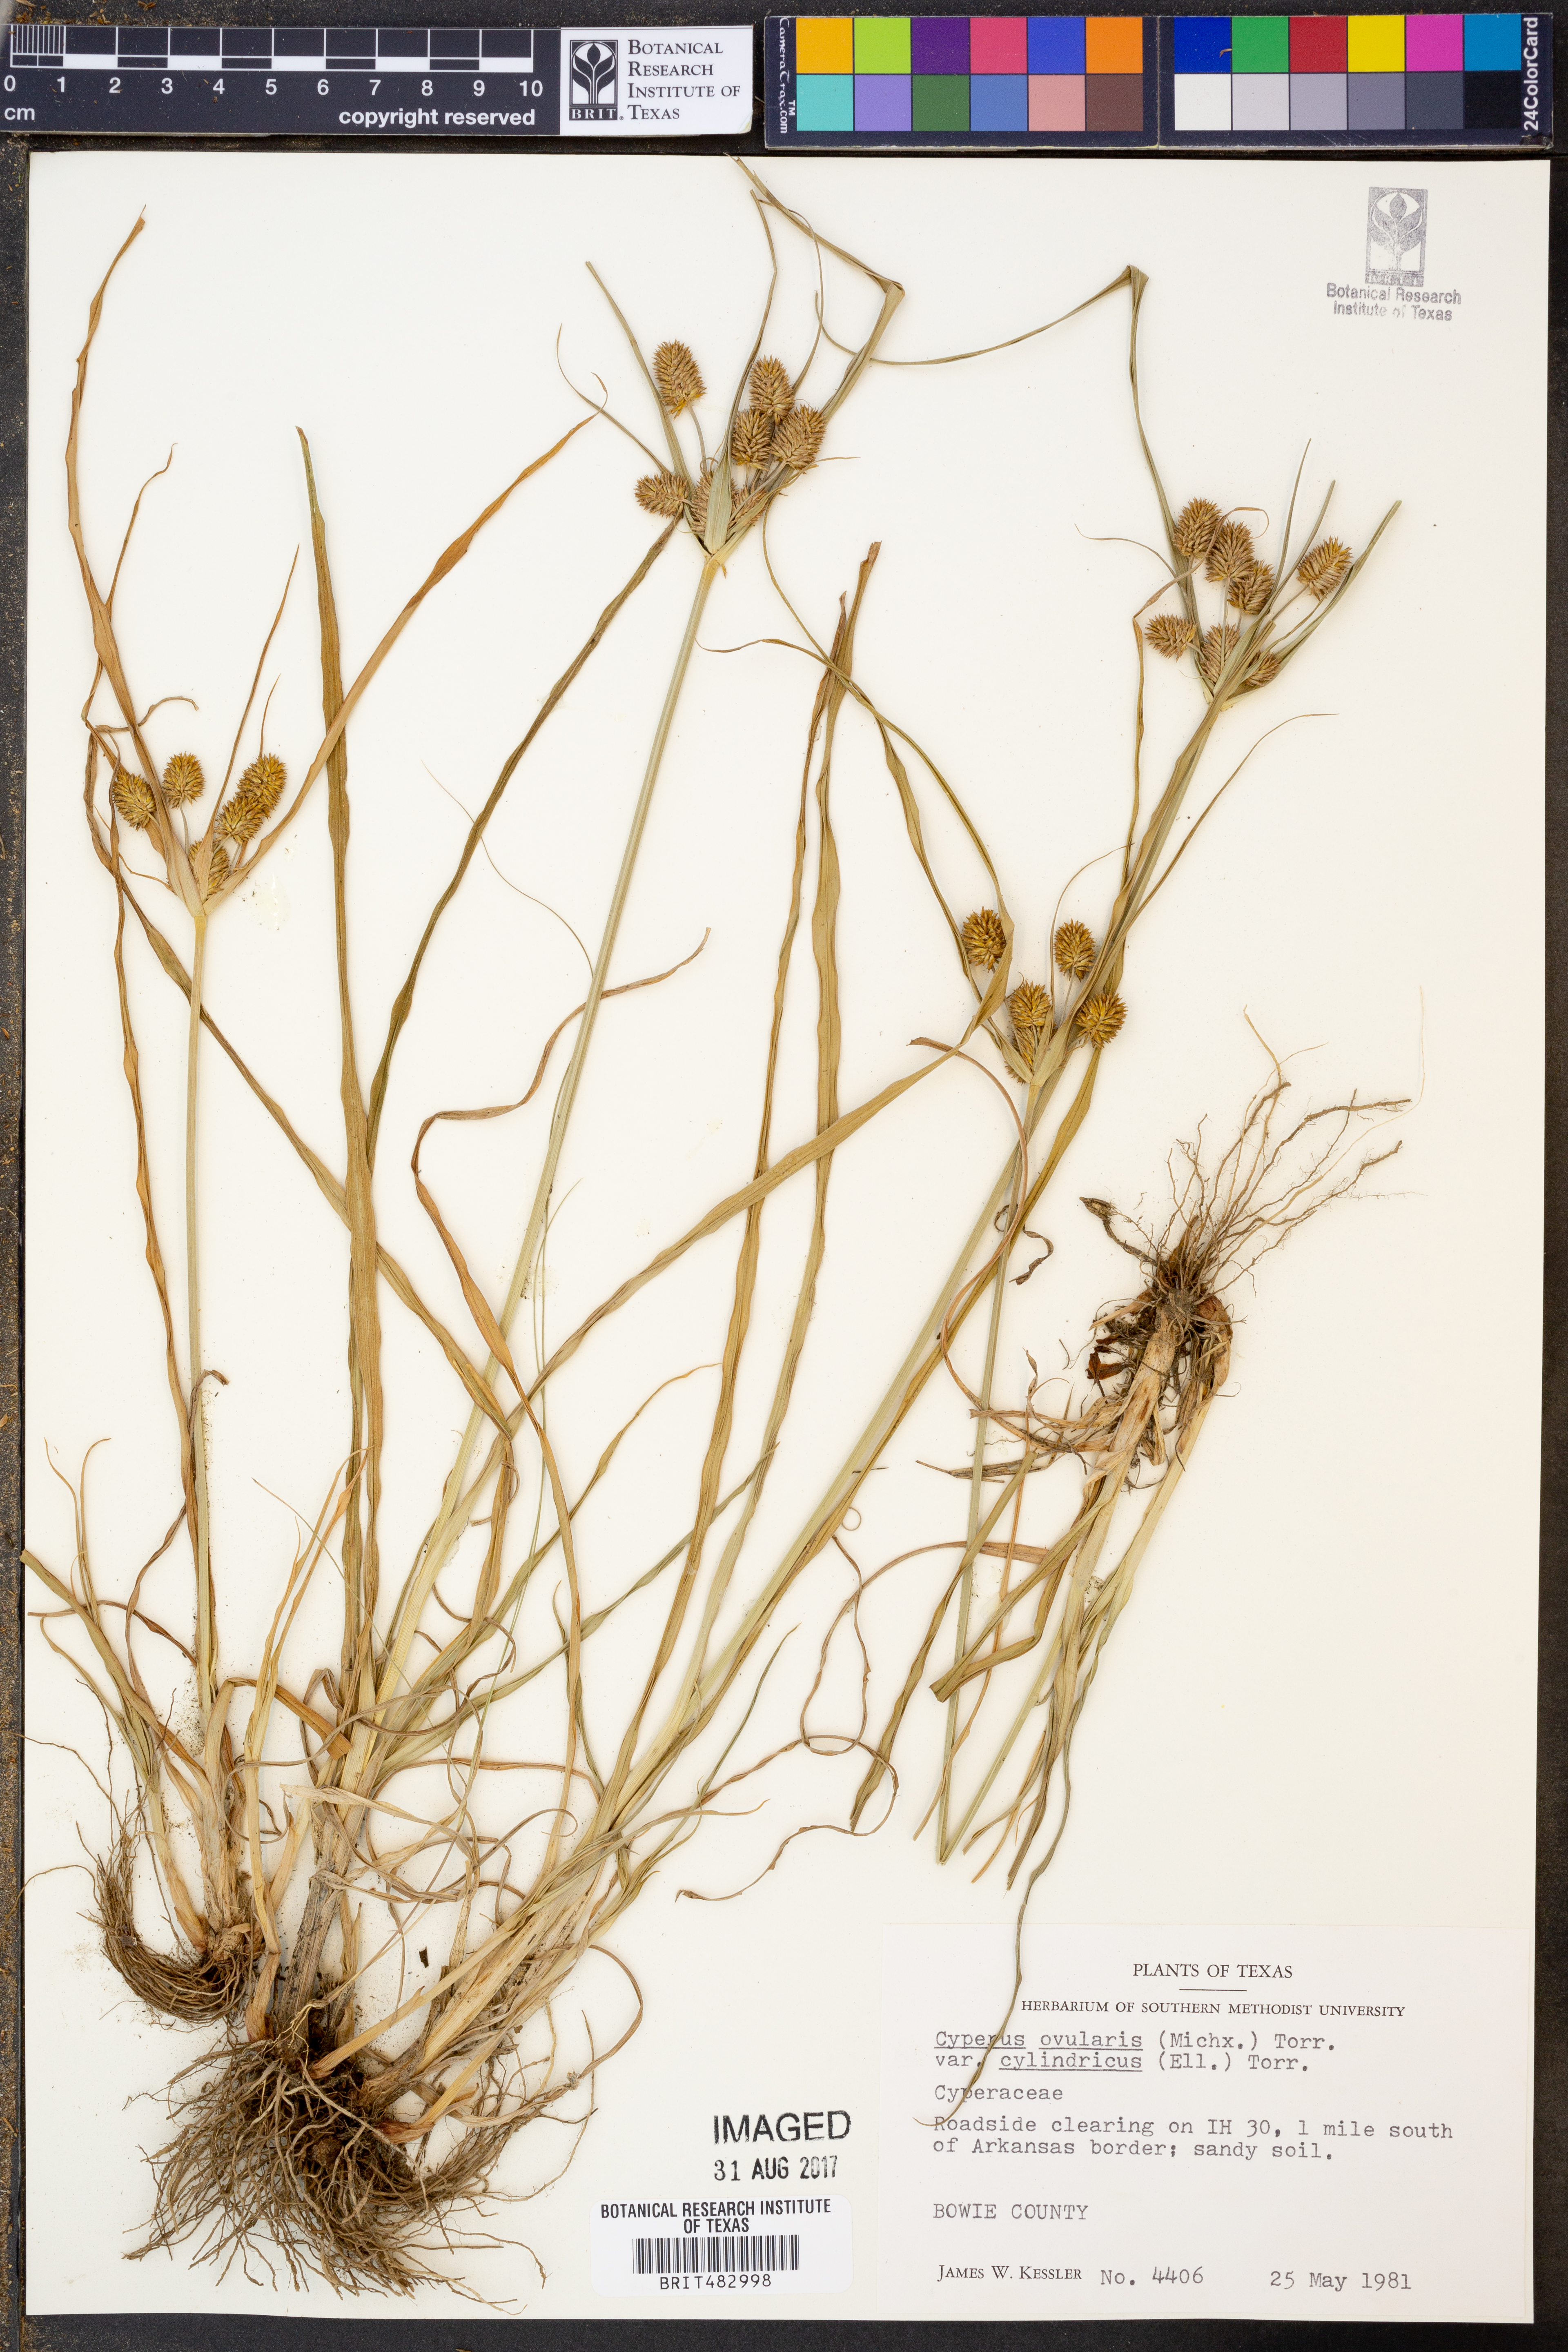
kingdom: Plantae
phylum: Tracheophyta
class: Liliopsida
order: Poales
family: Cyperaceae
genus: Cyperus
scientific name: Cyperus echinatus
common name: Teasel sedge
